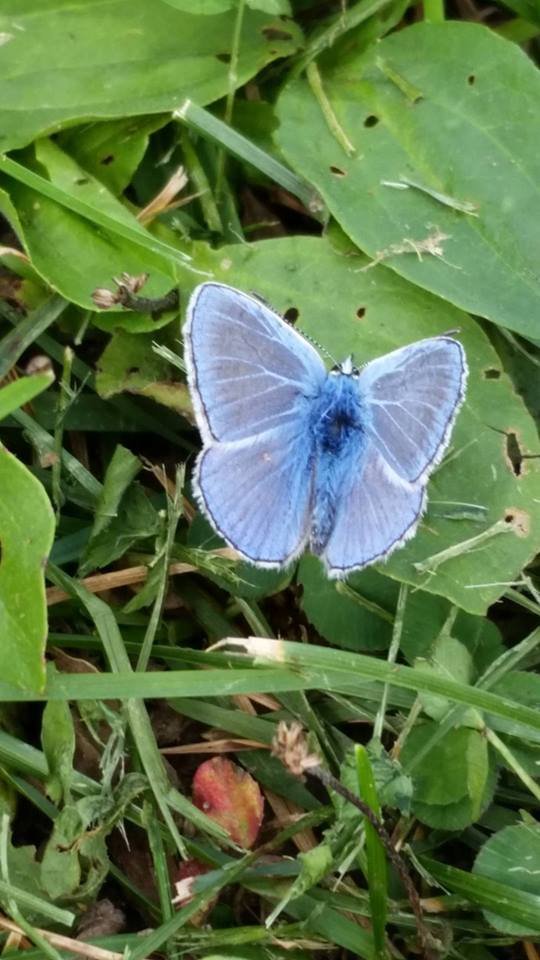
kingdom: Animalia
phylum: Arthropoda
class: Insecta
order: Lepidoptera
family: Lycaenidae
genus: Polyommatus
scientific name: Polyommatus icarus
